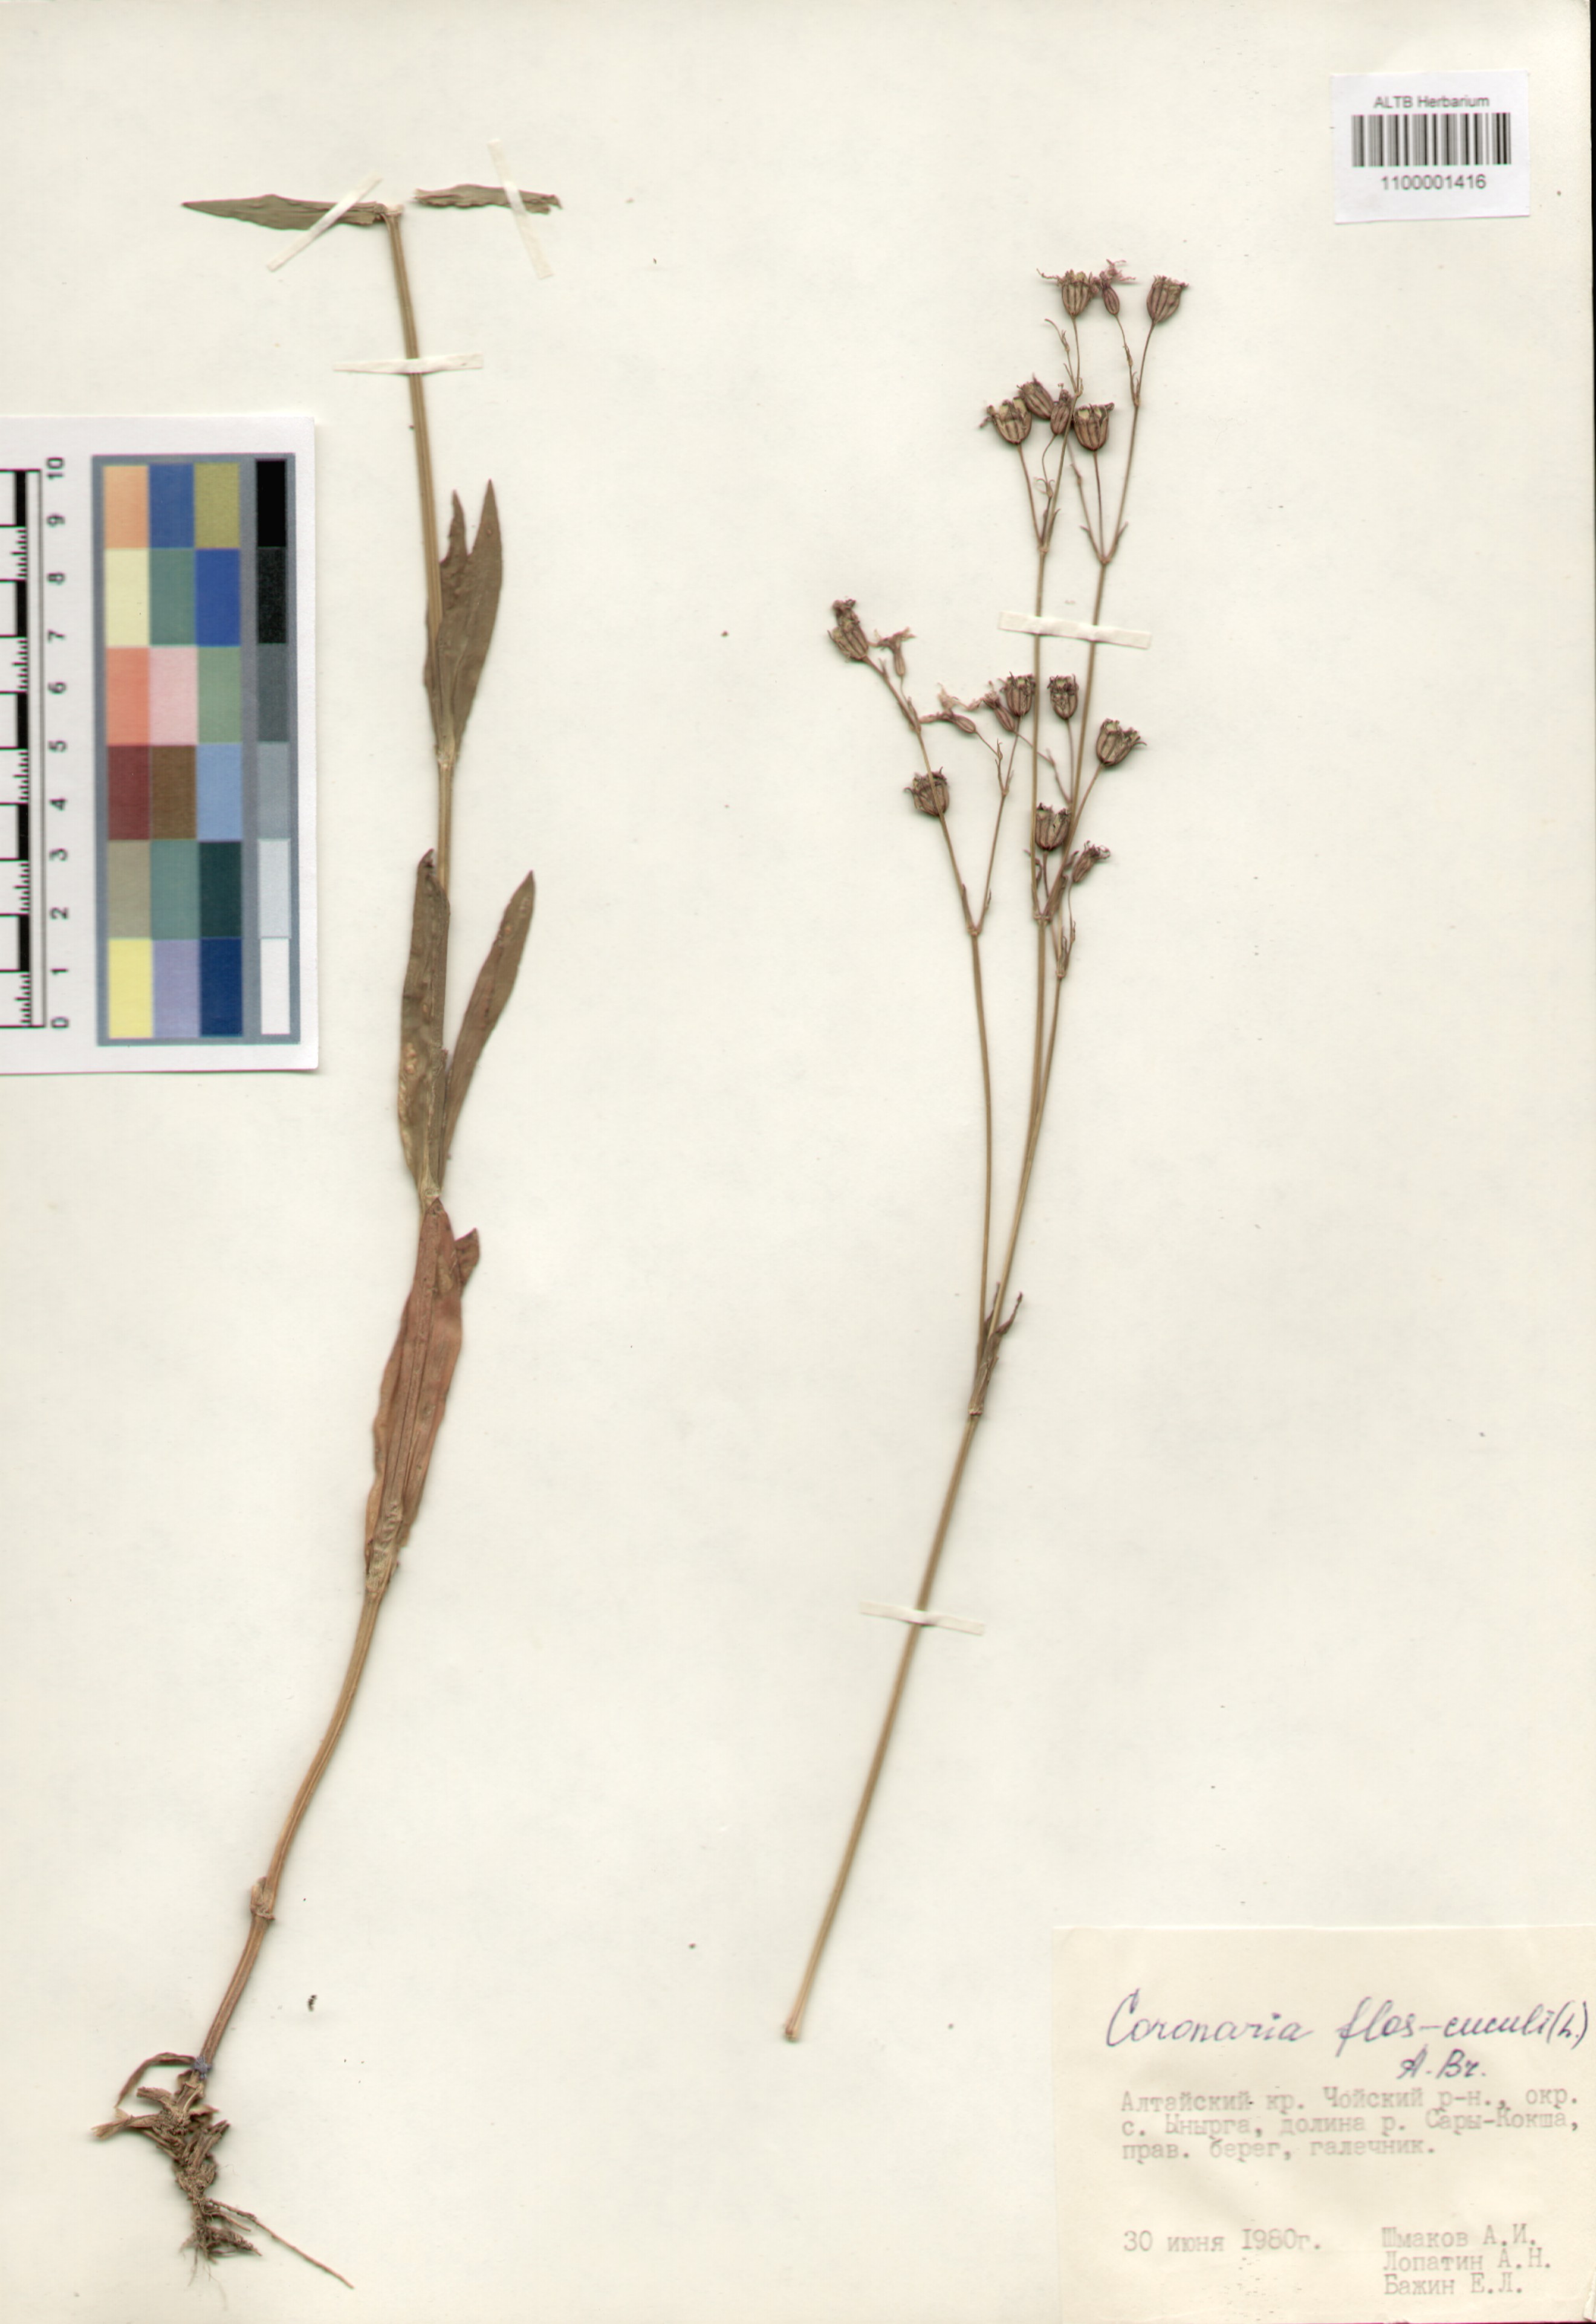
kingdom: Plantae
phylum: Tracheophyta
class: Magnoliopsida
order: Caryophyllales
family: Caryophyllaceae
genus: Silene
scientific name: Silene flos-cuculi
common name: Ragged-robin
